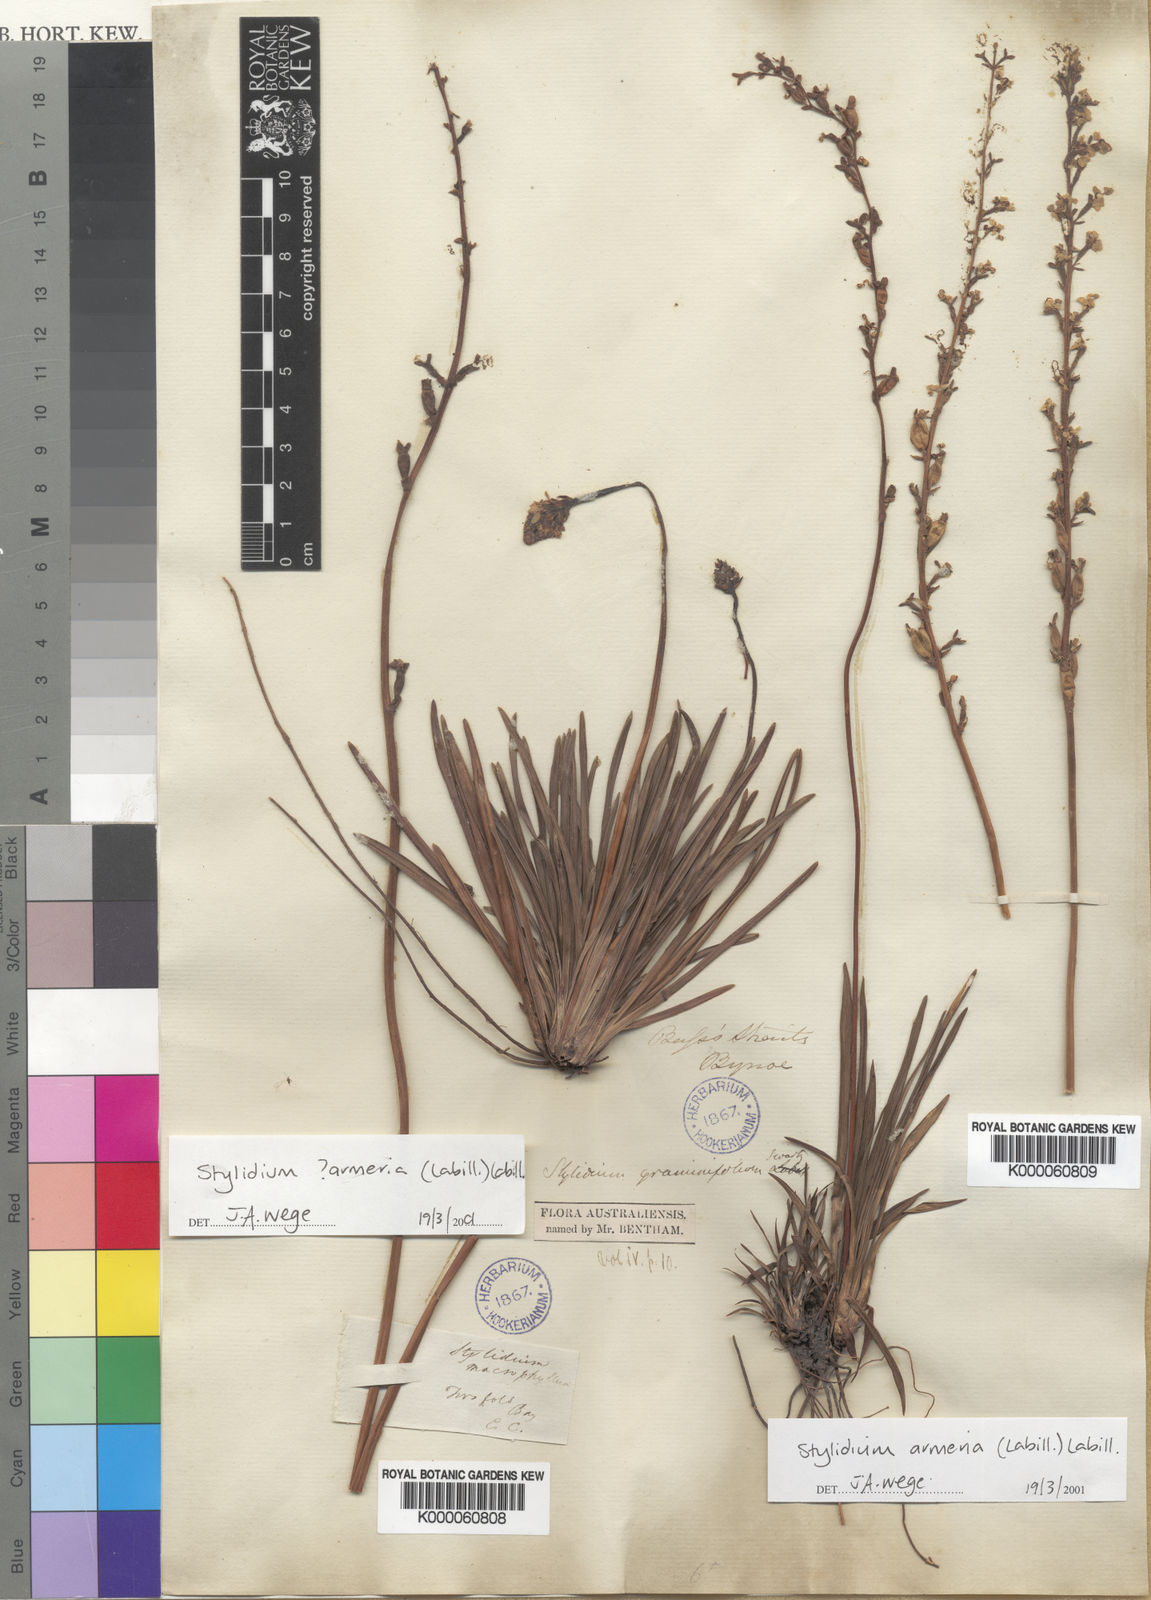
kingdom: Plantae
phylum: Tracheophyta
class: Magnoliopsida
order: Asterales
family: Stylidiaceae
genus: Stylidium
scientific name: Stylidium armeria
